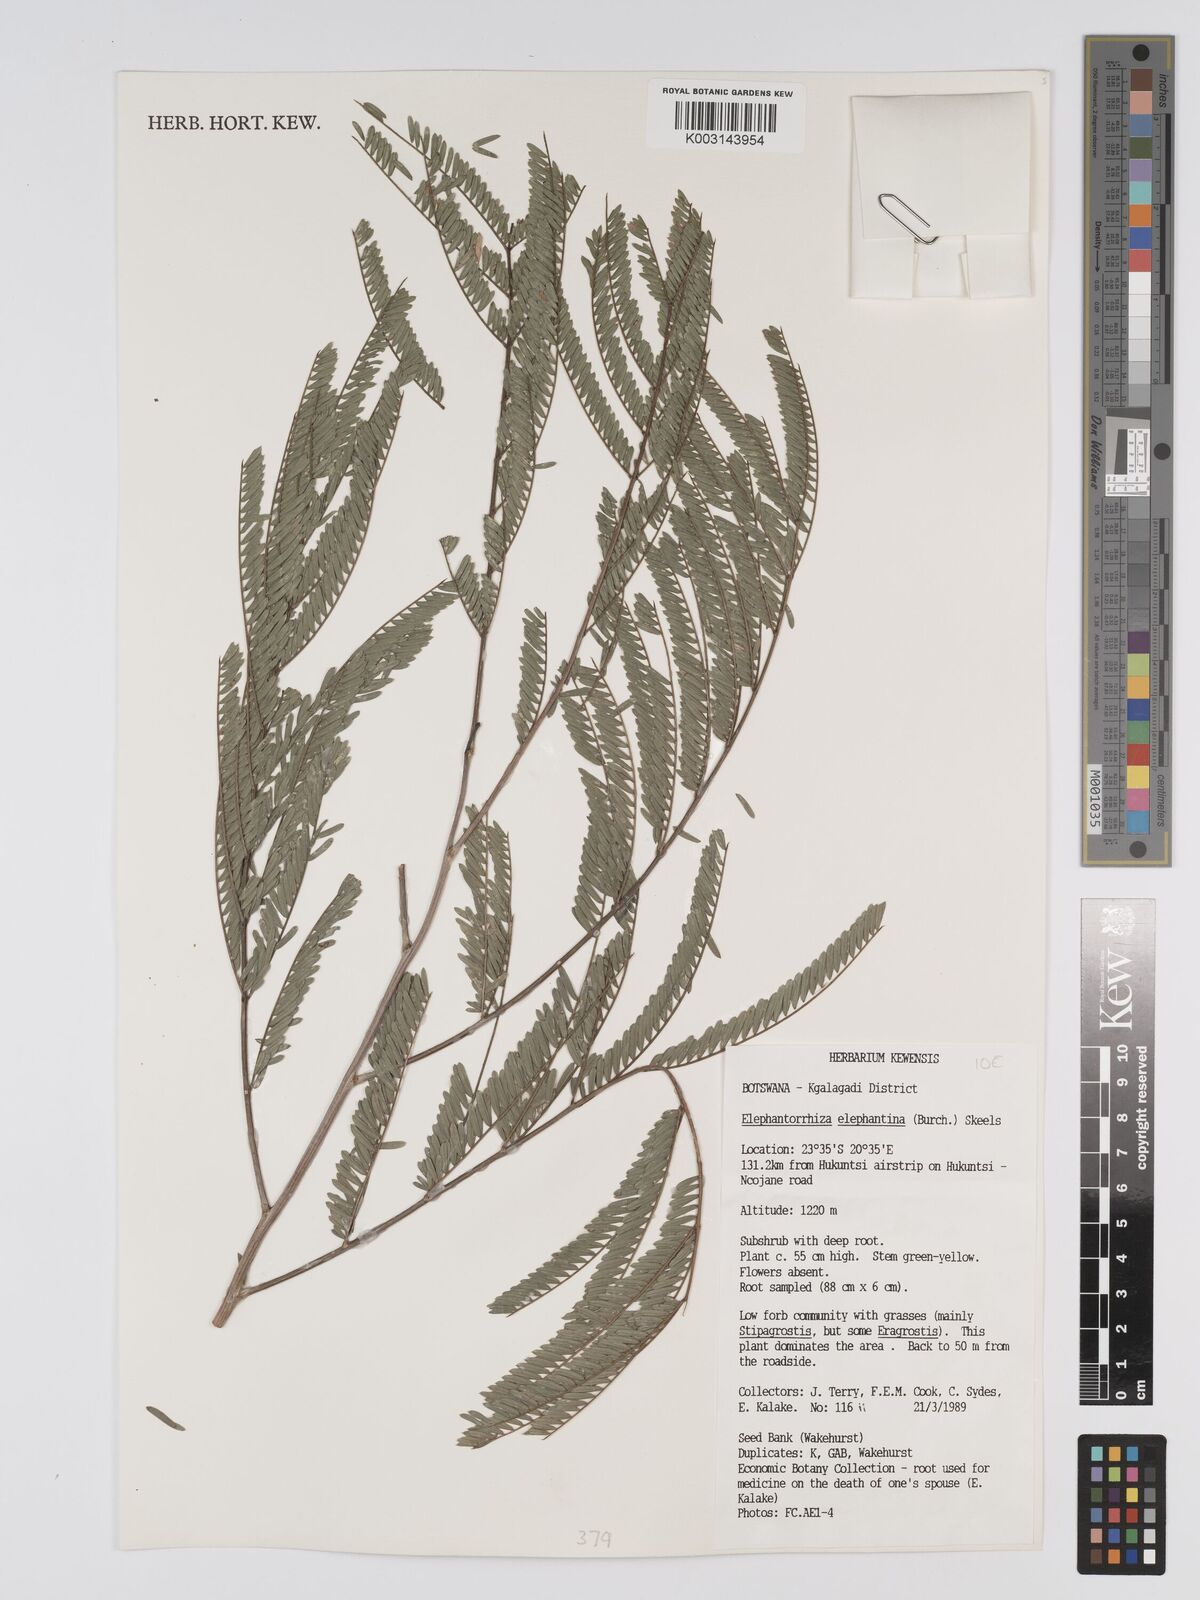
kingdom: Plantae
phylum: Tracheophyta
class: Magnoliopsida
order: Fabales
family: Fabaceae
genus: Elephantorrhiza
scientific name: Elephantorrhiza elephantina
